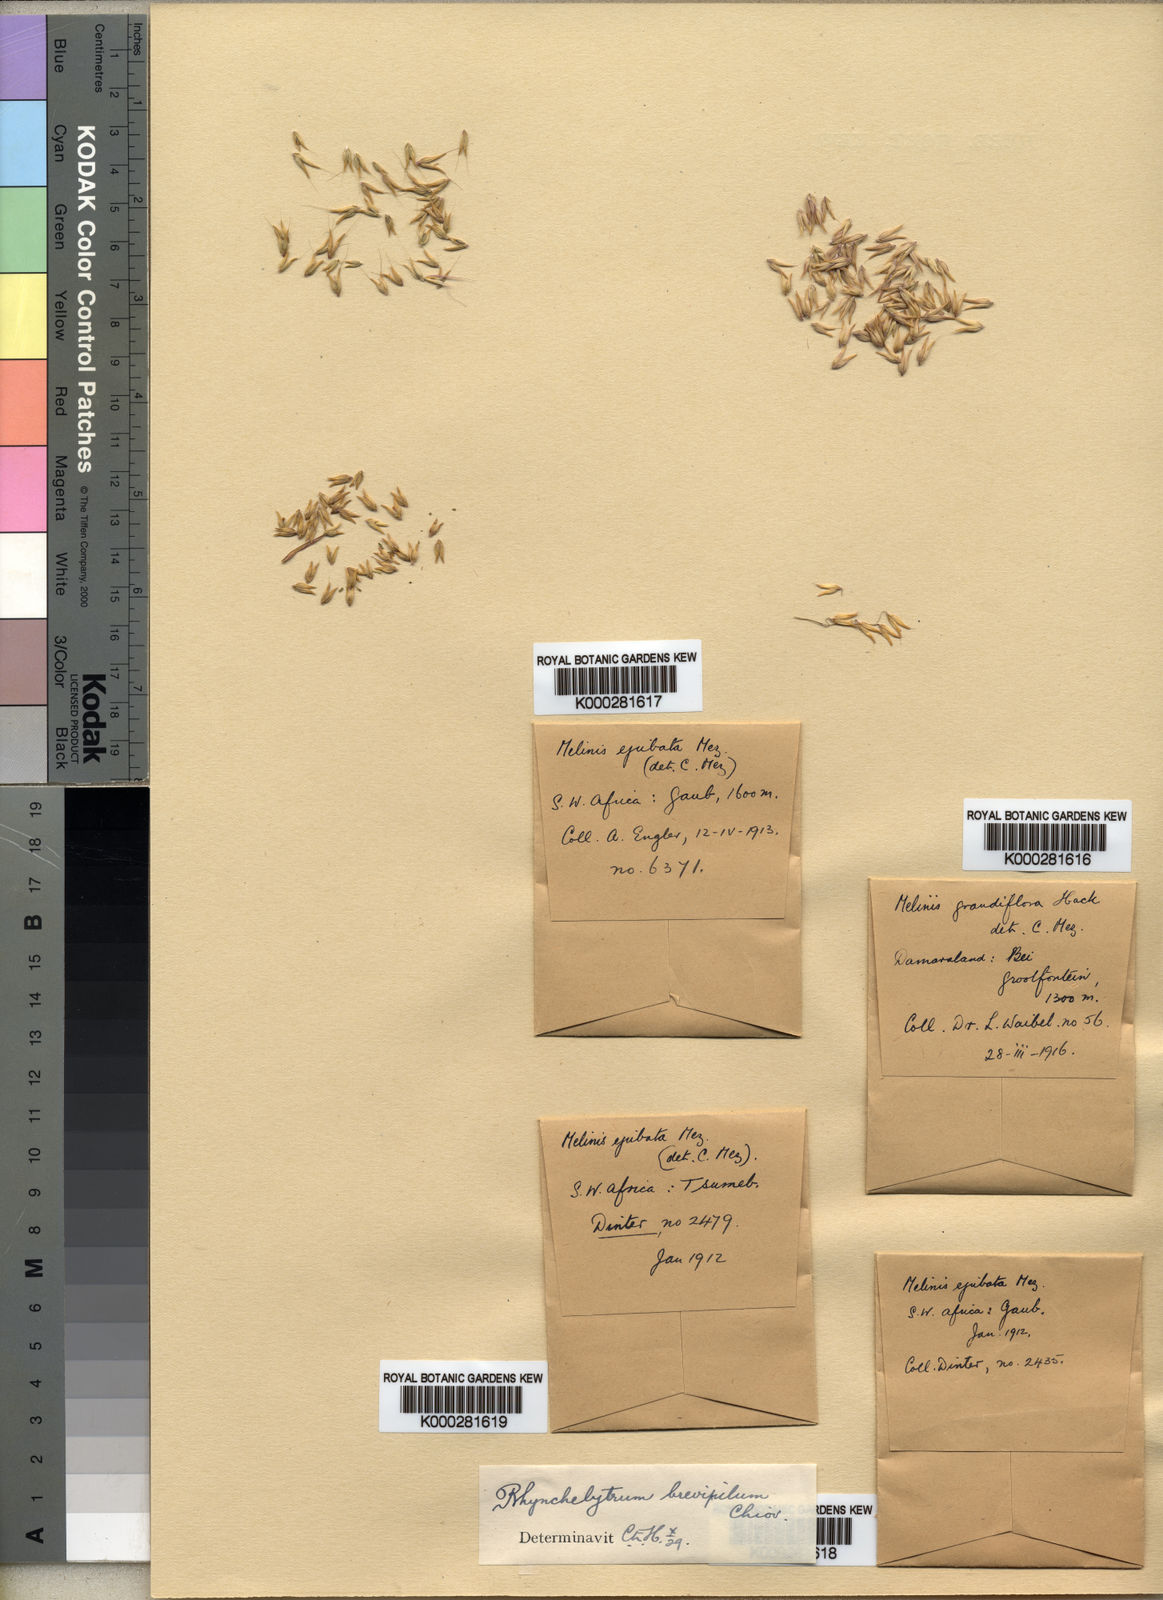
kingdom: Plantae
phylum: Tracheophyta
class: Liliopsida
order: Poales
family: Poaceae
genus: Melinis
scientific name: Melinis repens
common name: Rose natal grass
